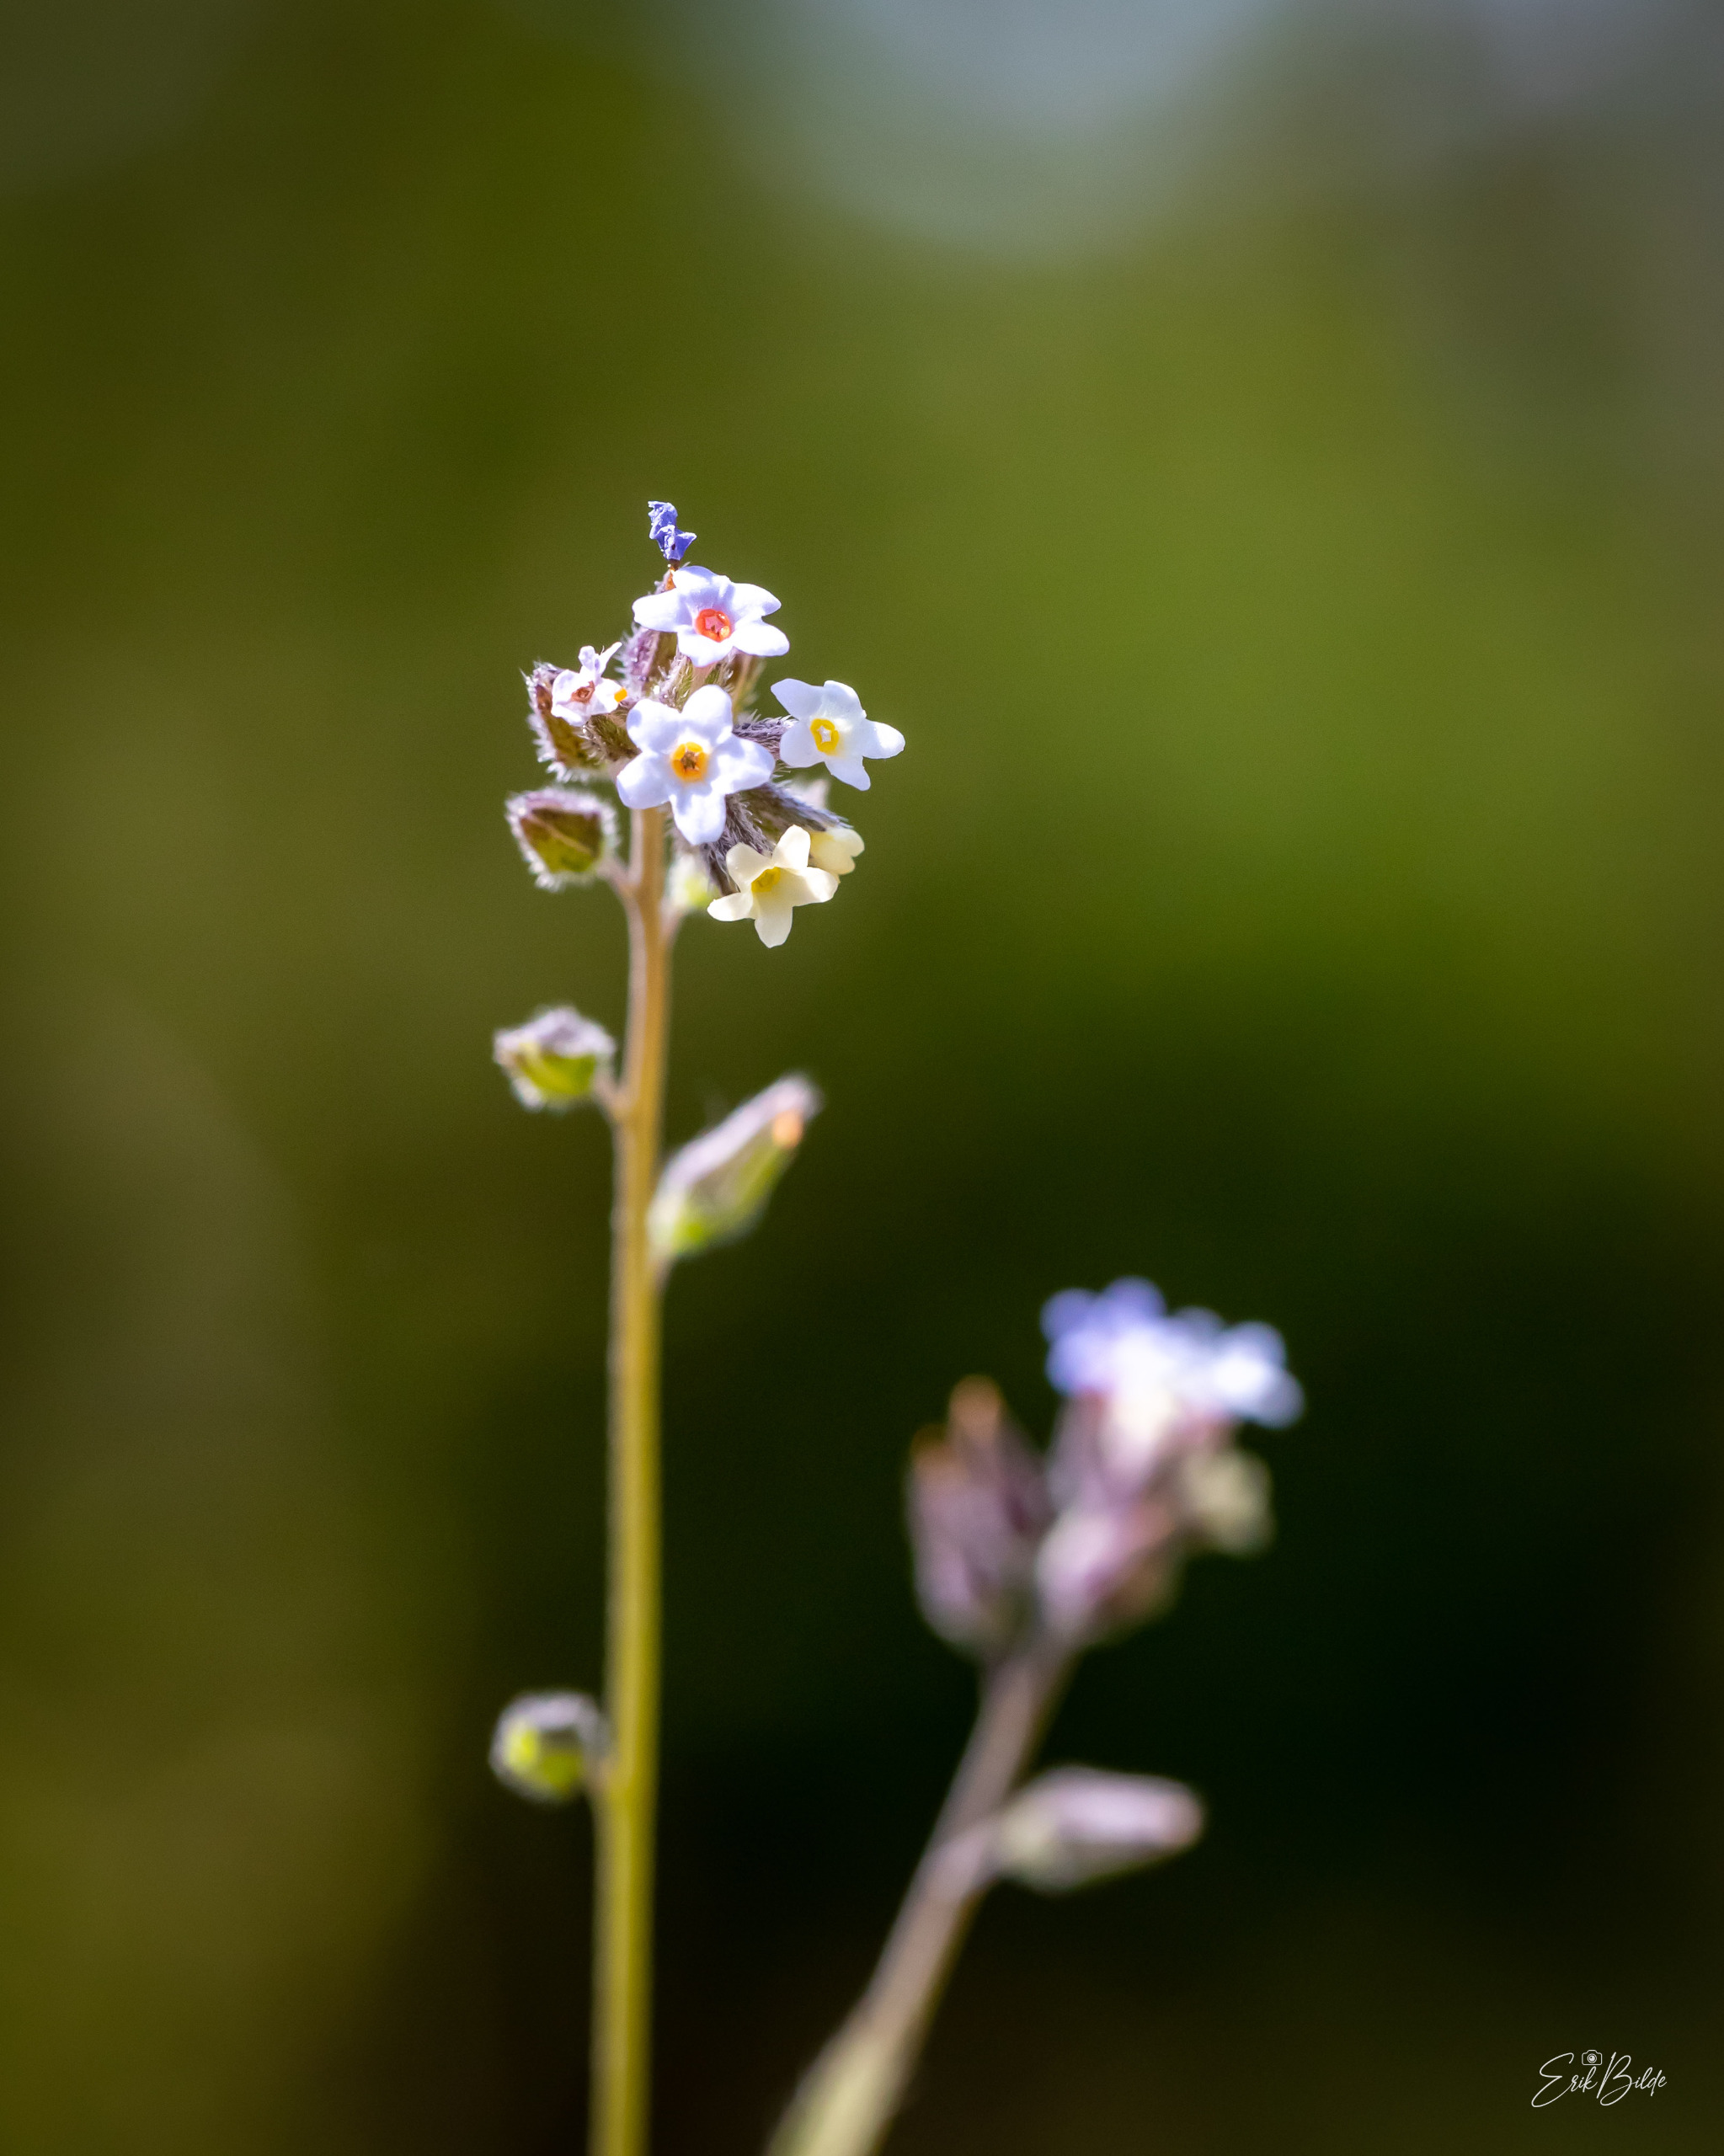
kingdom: Plantae
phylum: Tracheophyta
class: Magnoliopsida
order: Boraginales
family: Boraginaceae
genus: Myosotis
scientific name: Myosotis discolor
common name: Forskelligfarvet forglemmigej
